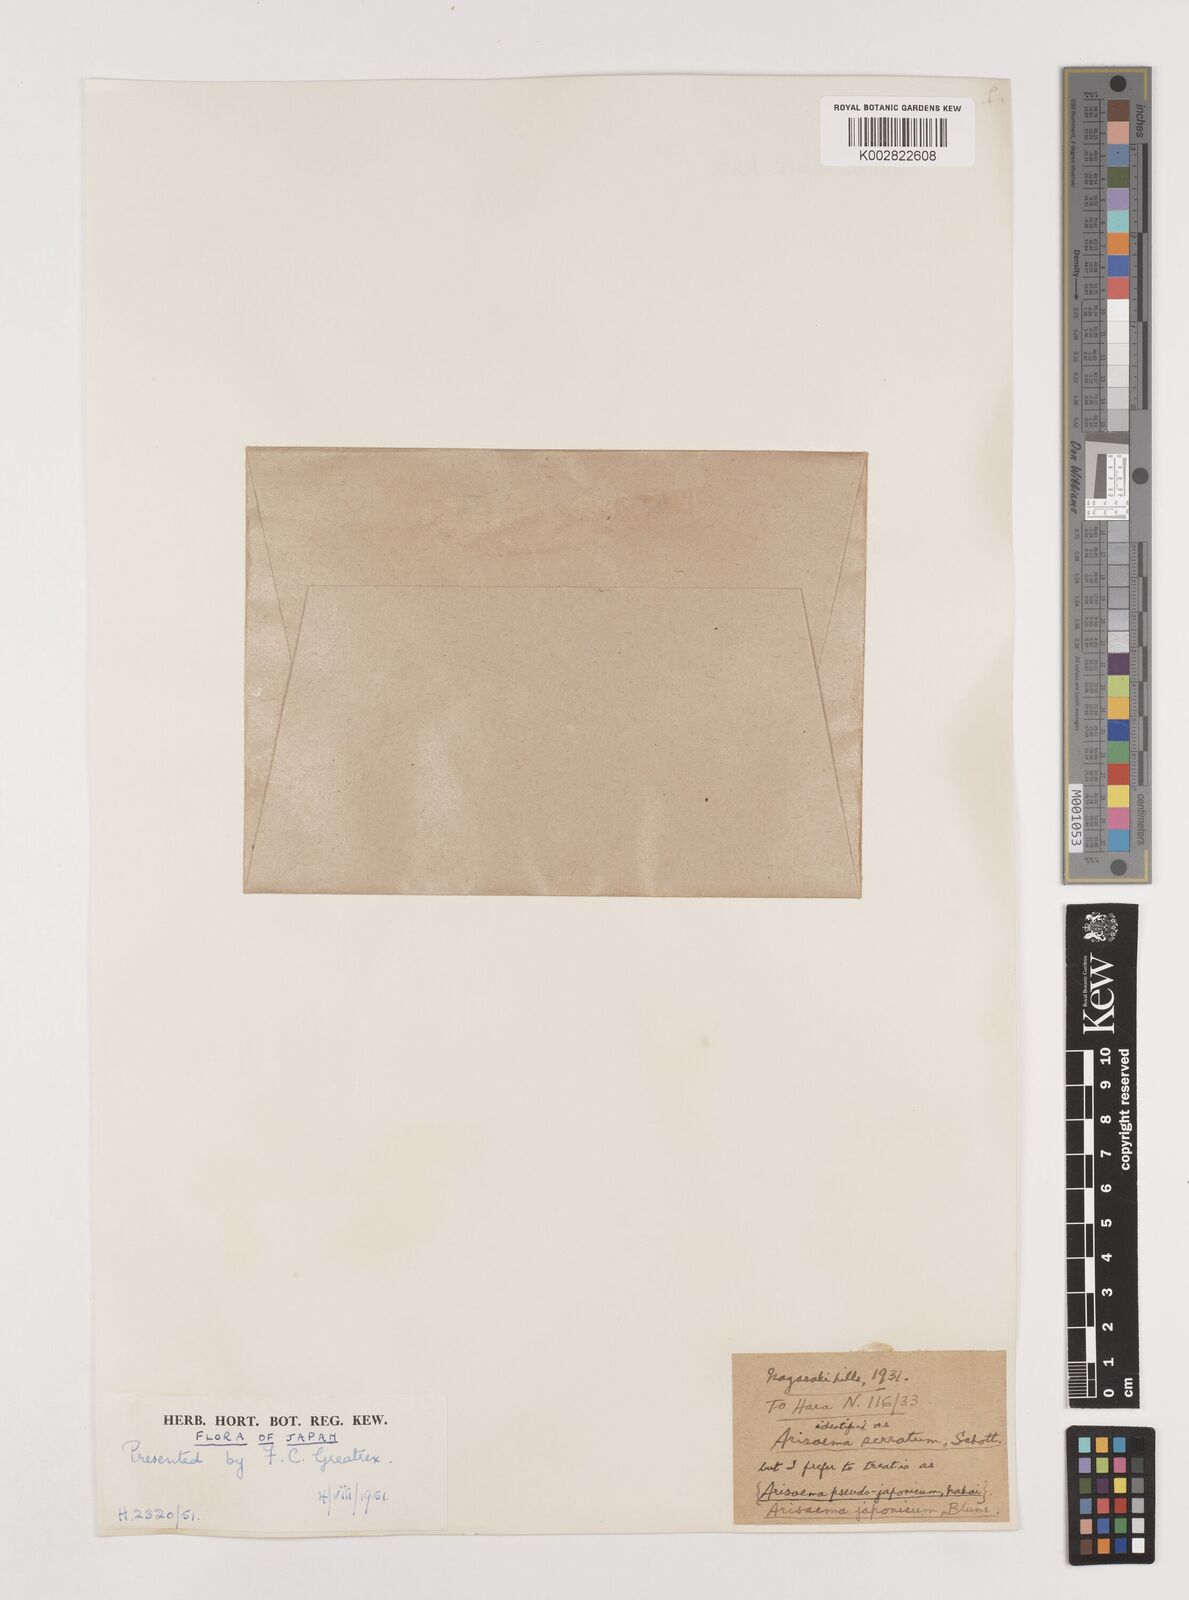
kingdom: Plantae
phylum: Tracheophyta
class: Liliopsida
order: Alismatales
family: Araceae
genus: Arisaema
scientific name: Arisaema serratum
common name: Japanese arisaema
